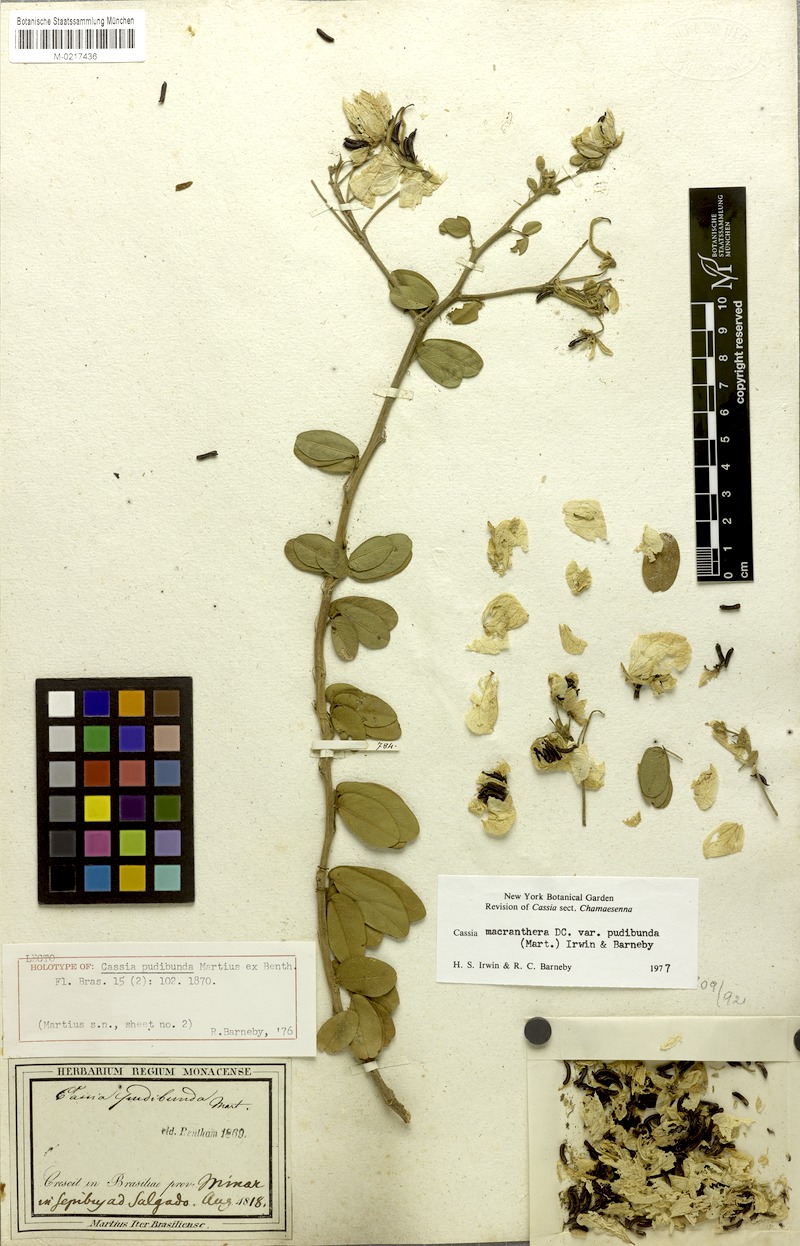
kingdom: Plantae
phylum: Tracheophyta
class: Magnoliopsida
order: Fabales
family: Fabaceae
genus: Senna
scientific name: Senna macranthera
